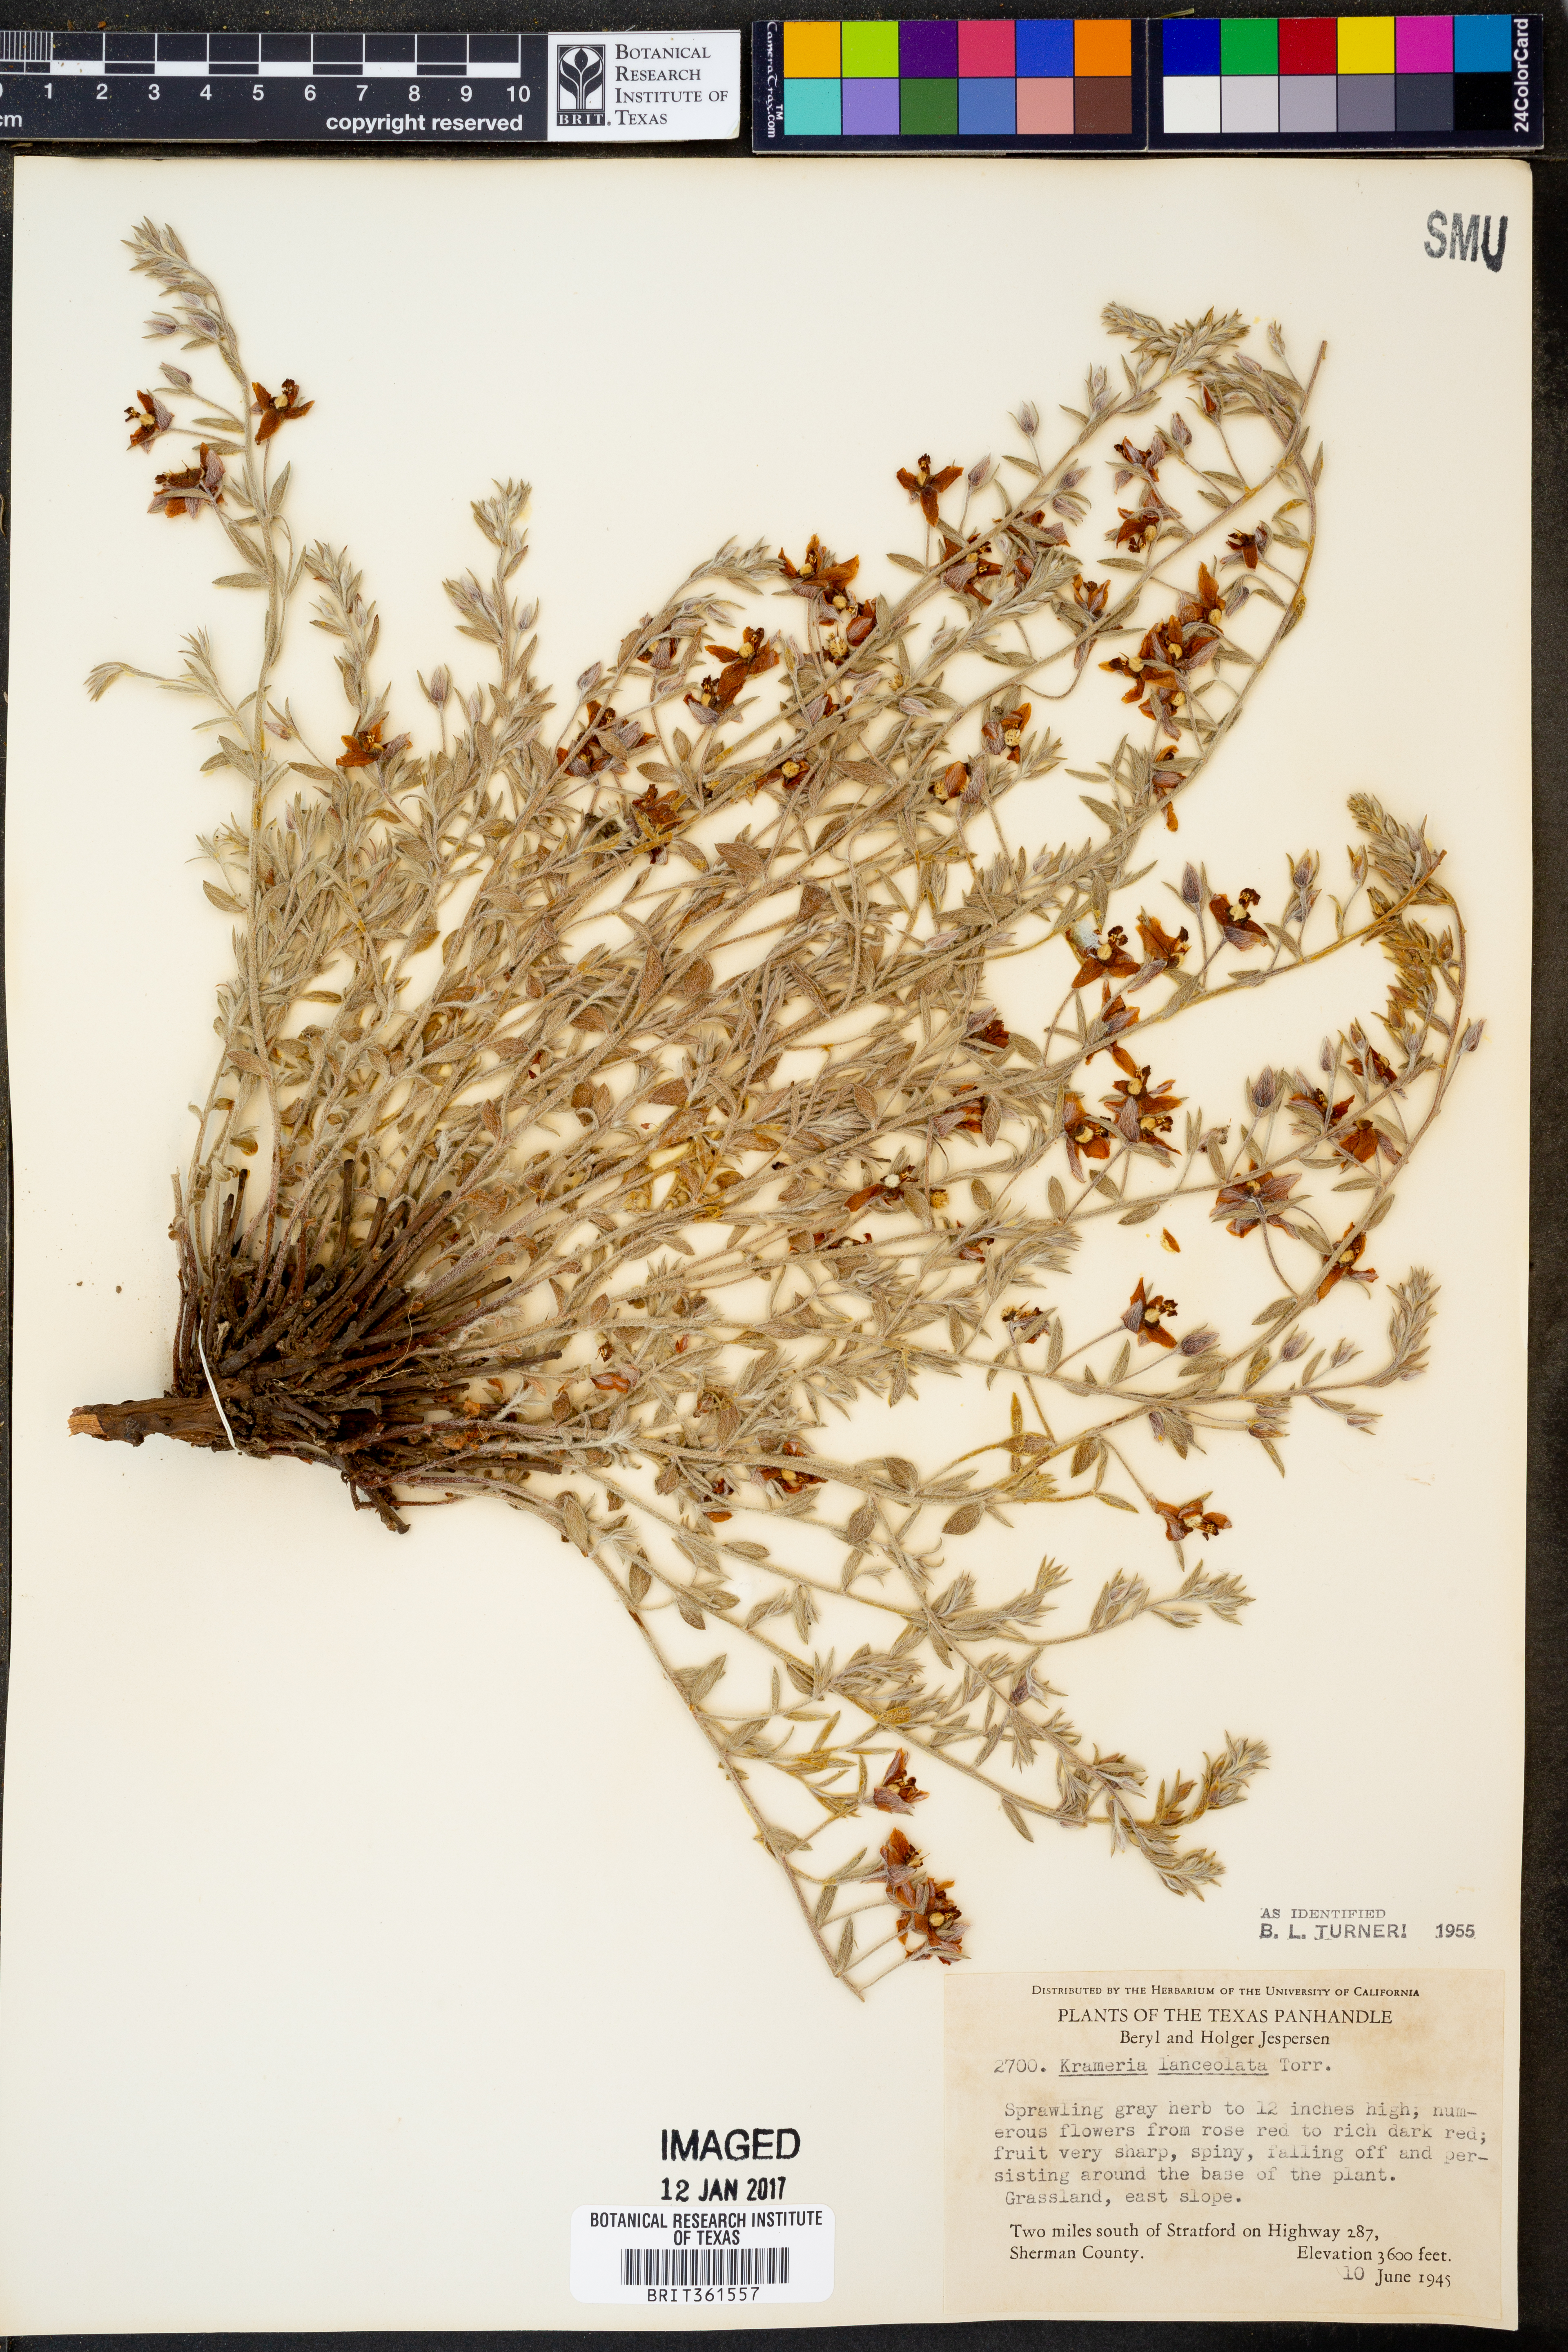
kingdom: Plantae
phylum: Tracheophyta
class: Magnoliopsida
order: Zygophyllales
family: Krameriaceae
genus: Krameria
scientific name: Krameria lanceolata
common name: Ratany
